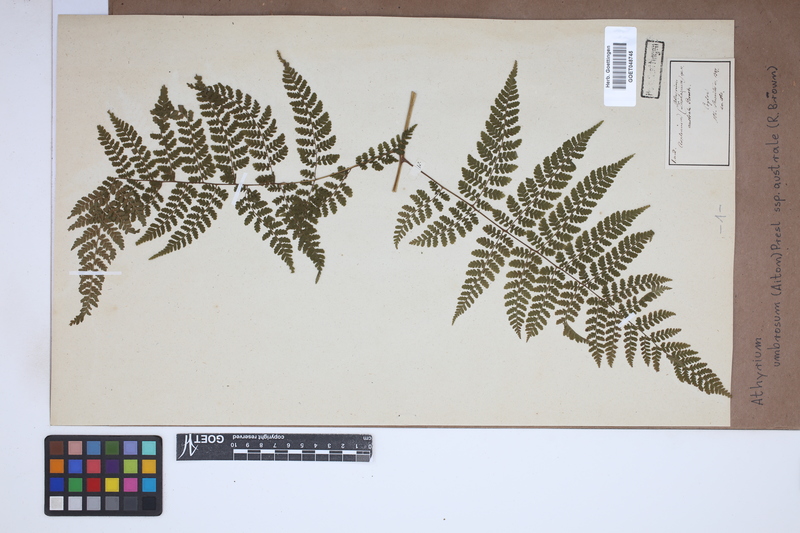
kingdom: Plantae
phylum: Tracheophyta
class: Polypodiopsida
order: Polypodiales
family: Athyriaceae
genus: Diplazium
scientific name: Diplazium australe
